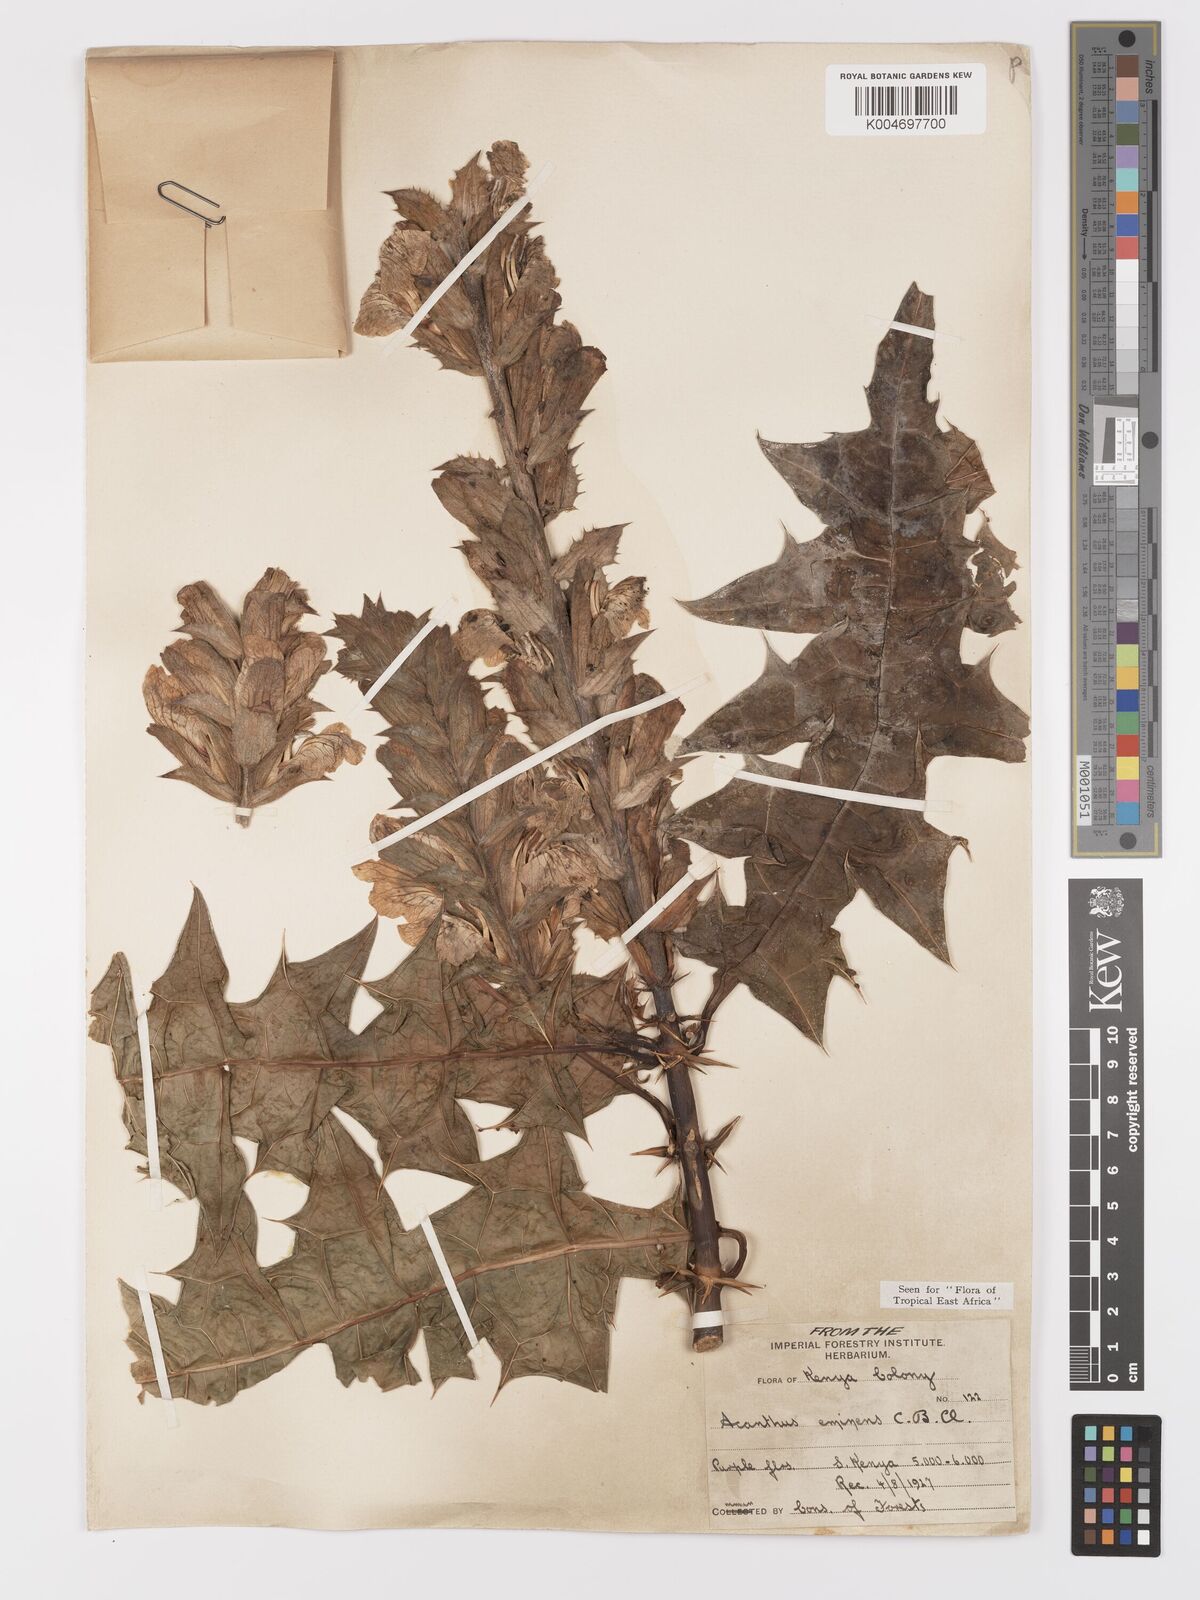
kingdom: Plantae
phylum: Tracheophyta
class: Magnoliopsida
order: Lamiales
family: Acanthaceae
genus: Acanthus
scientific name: Acanthus eminens
